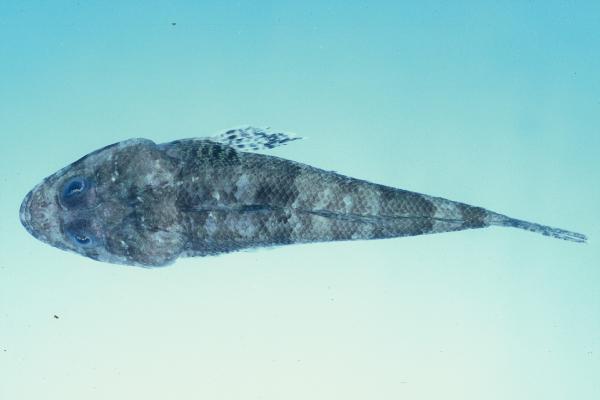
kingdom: Animalia
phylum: Chordata
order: Scorpaeniformes
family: Platycephalidae
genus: Thysanophrys
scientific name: Thysanophrys celebica
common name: Celebes flathead
